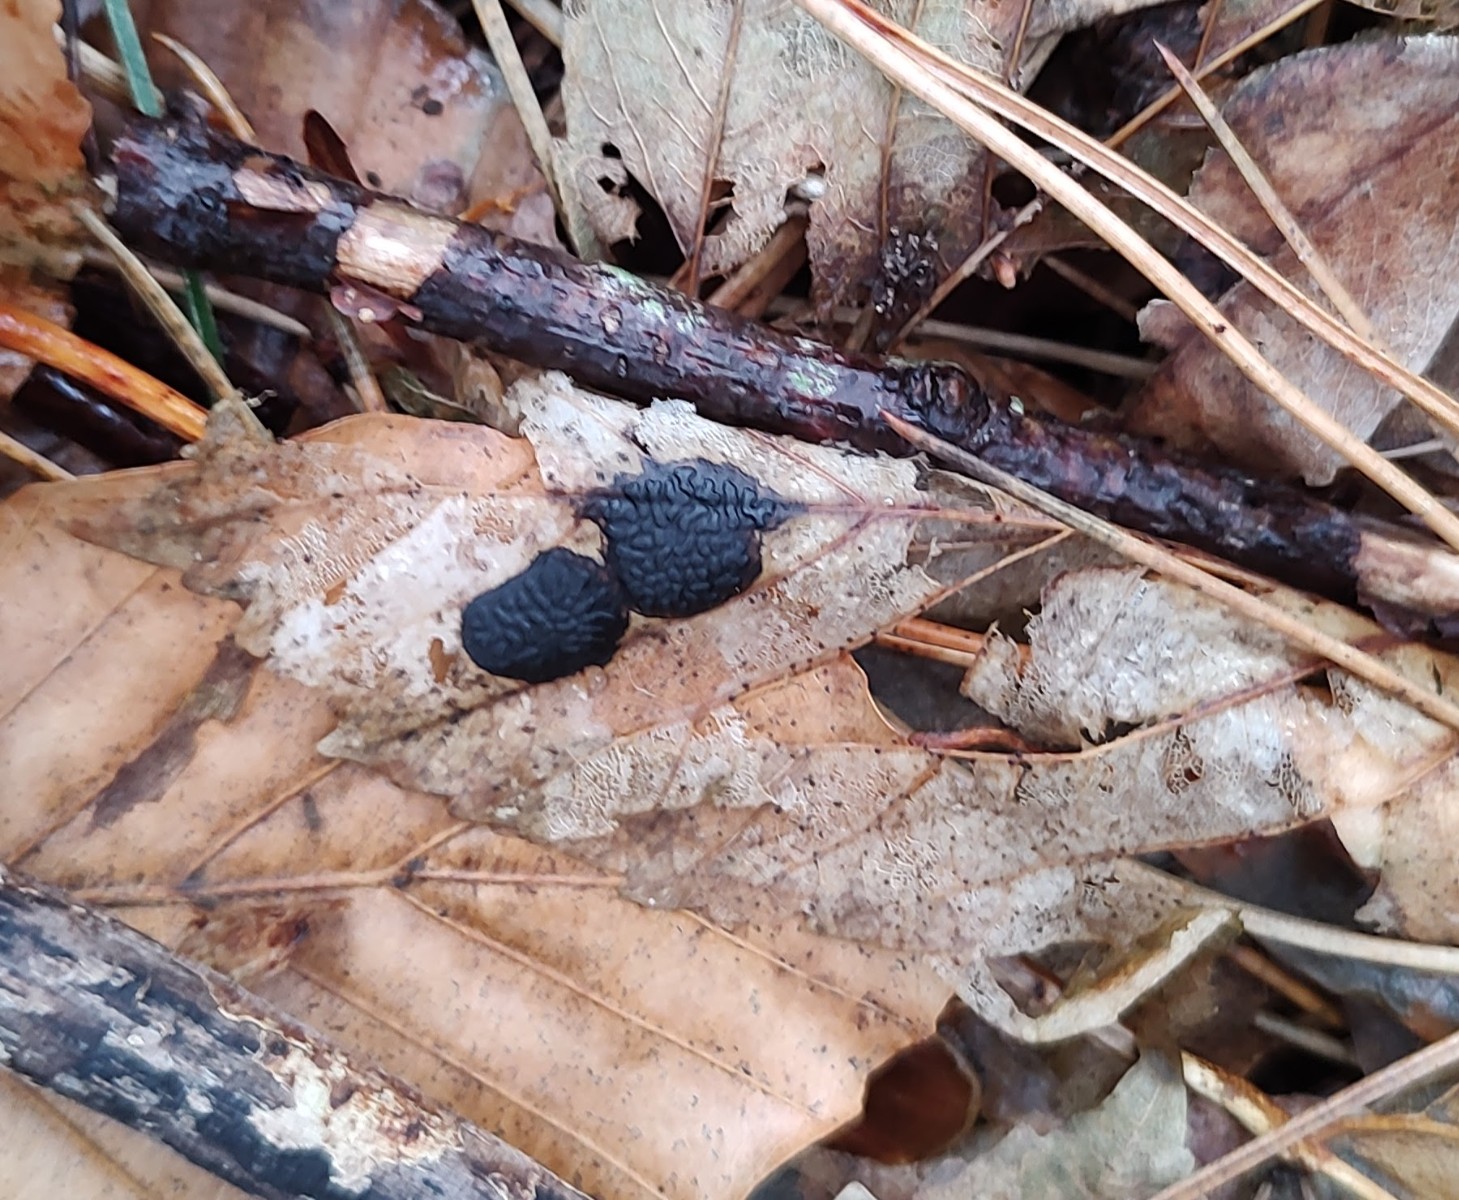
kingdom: Fungi
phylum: Ascomycota
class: Leotiomycetes
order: Rhytismatales
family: Rhytismataceae
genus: Rhytisma
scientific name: Rhytisma acerinum
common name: ahorn-rynkeplet
